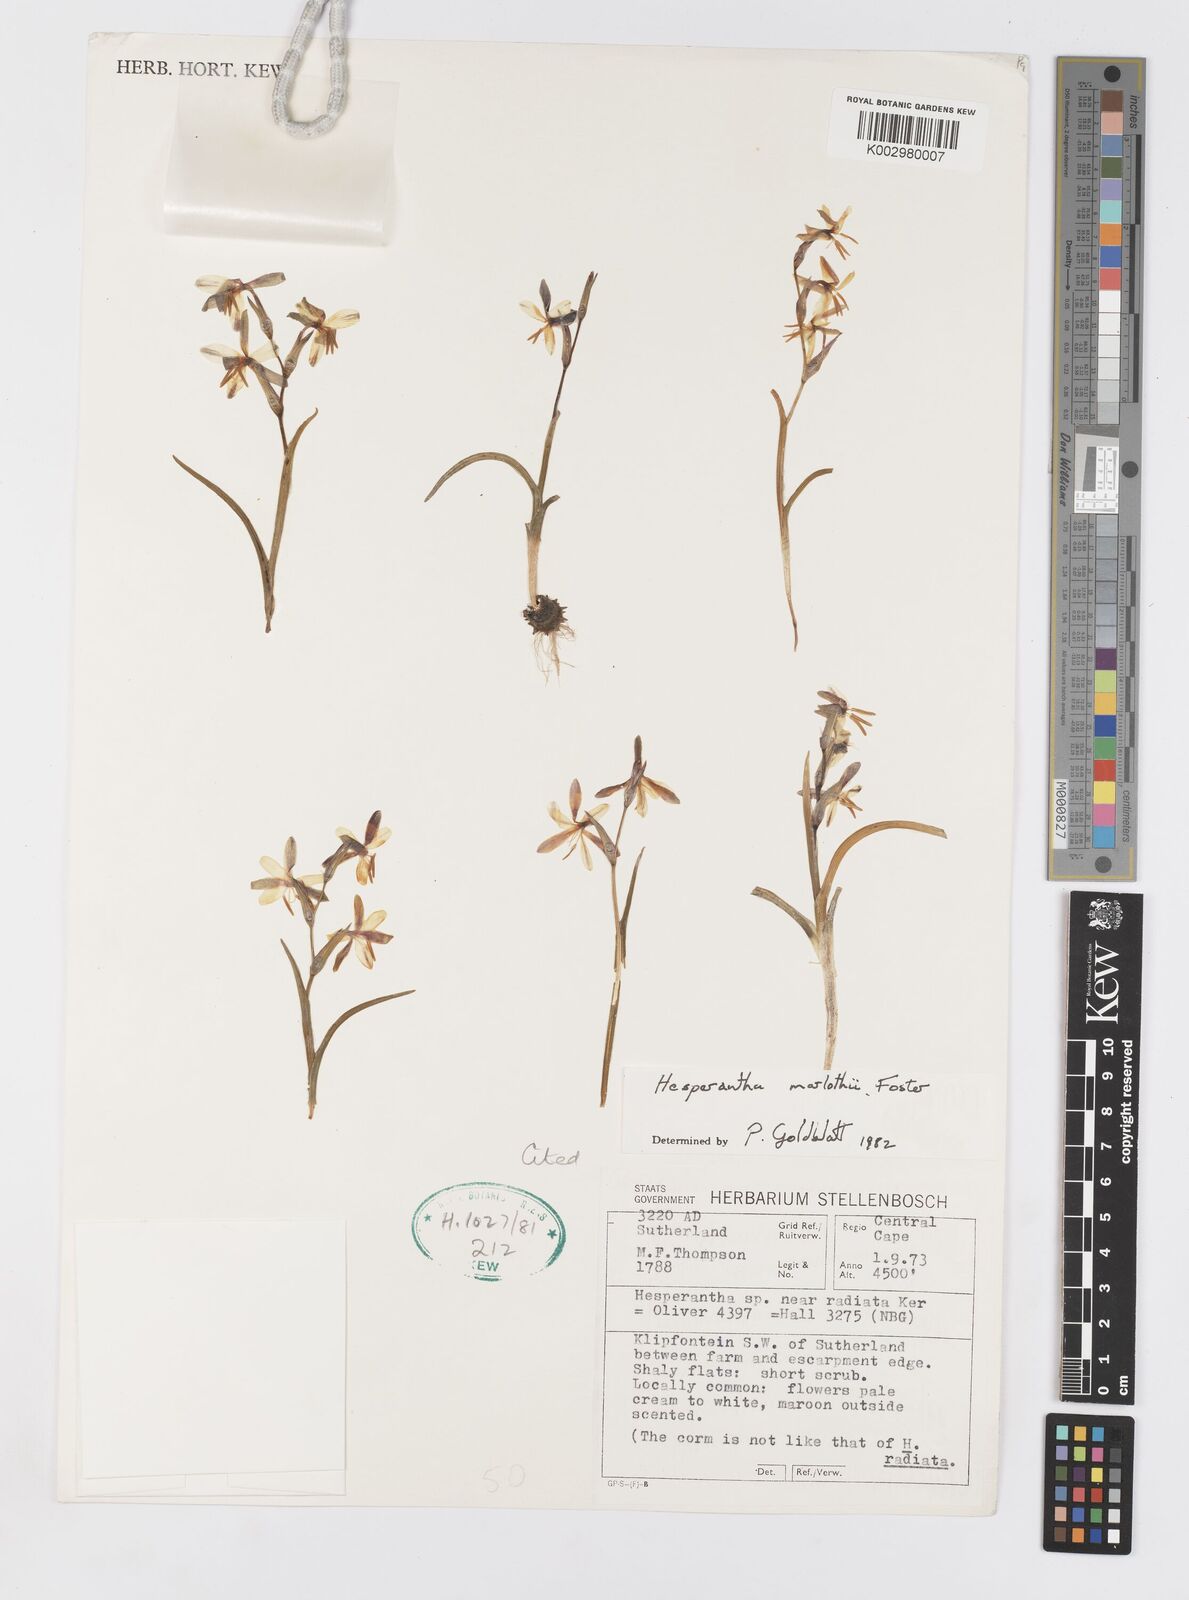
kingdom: Plantae
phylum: Tracheophyta
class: Liliopsida
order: Asparagales
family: Iridaceae
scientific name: Iridaceae
